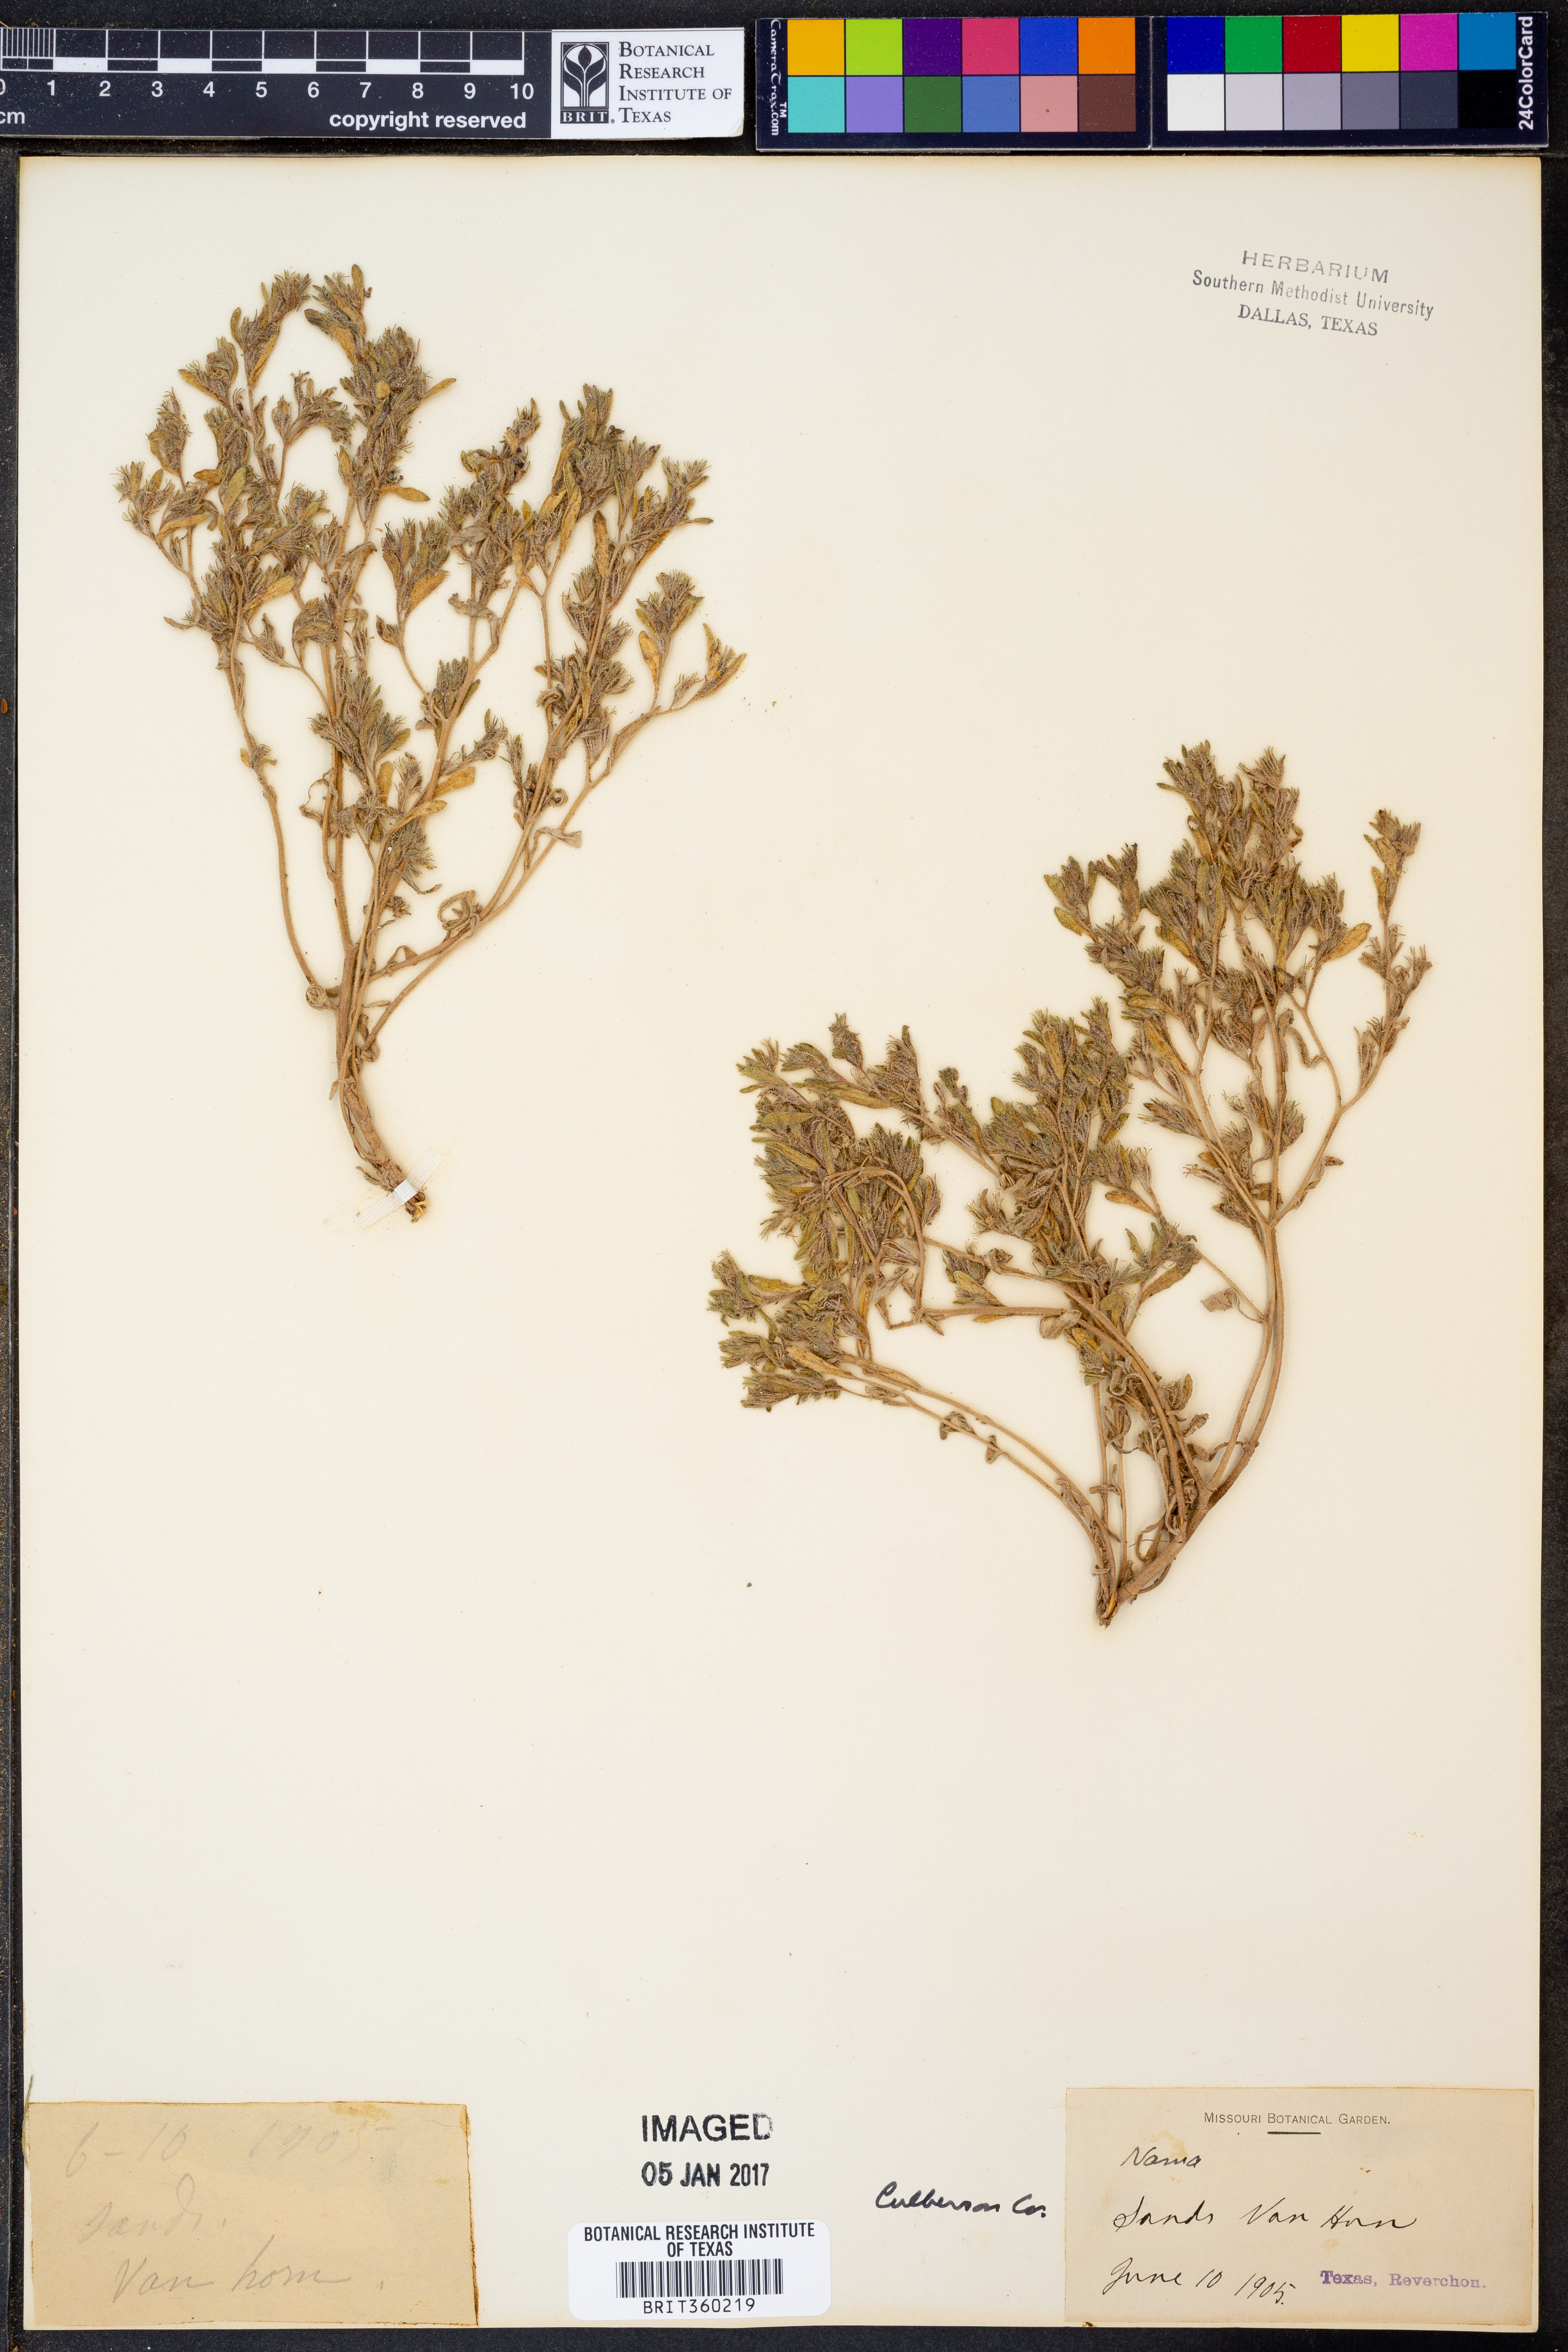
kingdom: Plantae
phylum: Tracheophyta
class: Magnoliopsida
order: Boraginales
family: Namaceae
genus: Nama
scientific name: Nama
